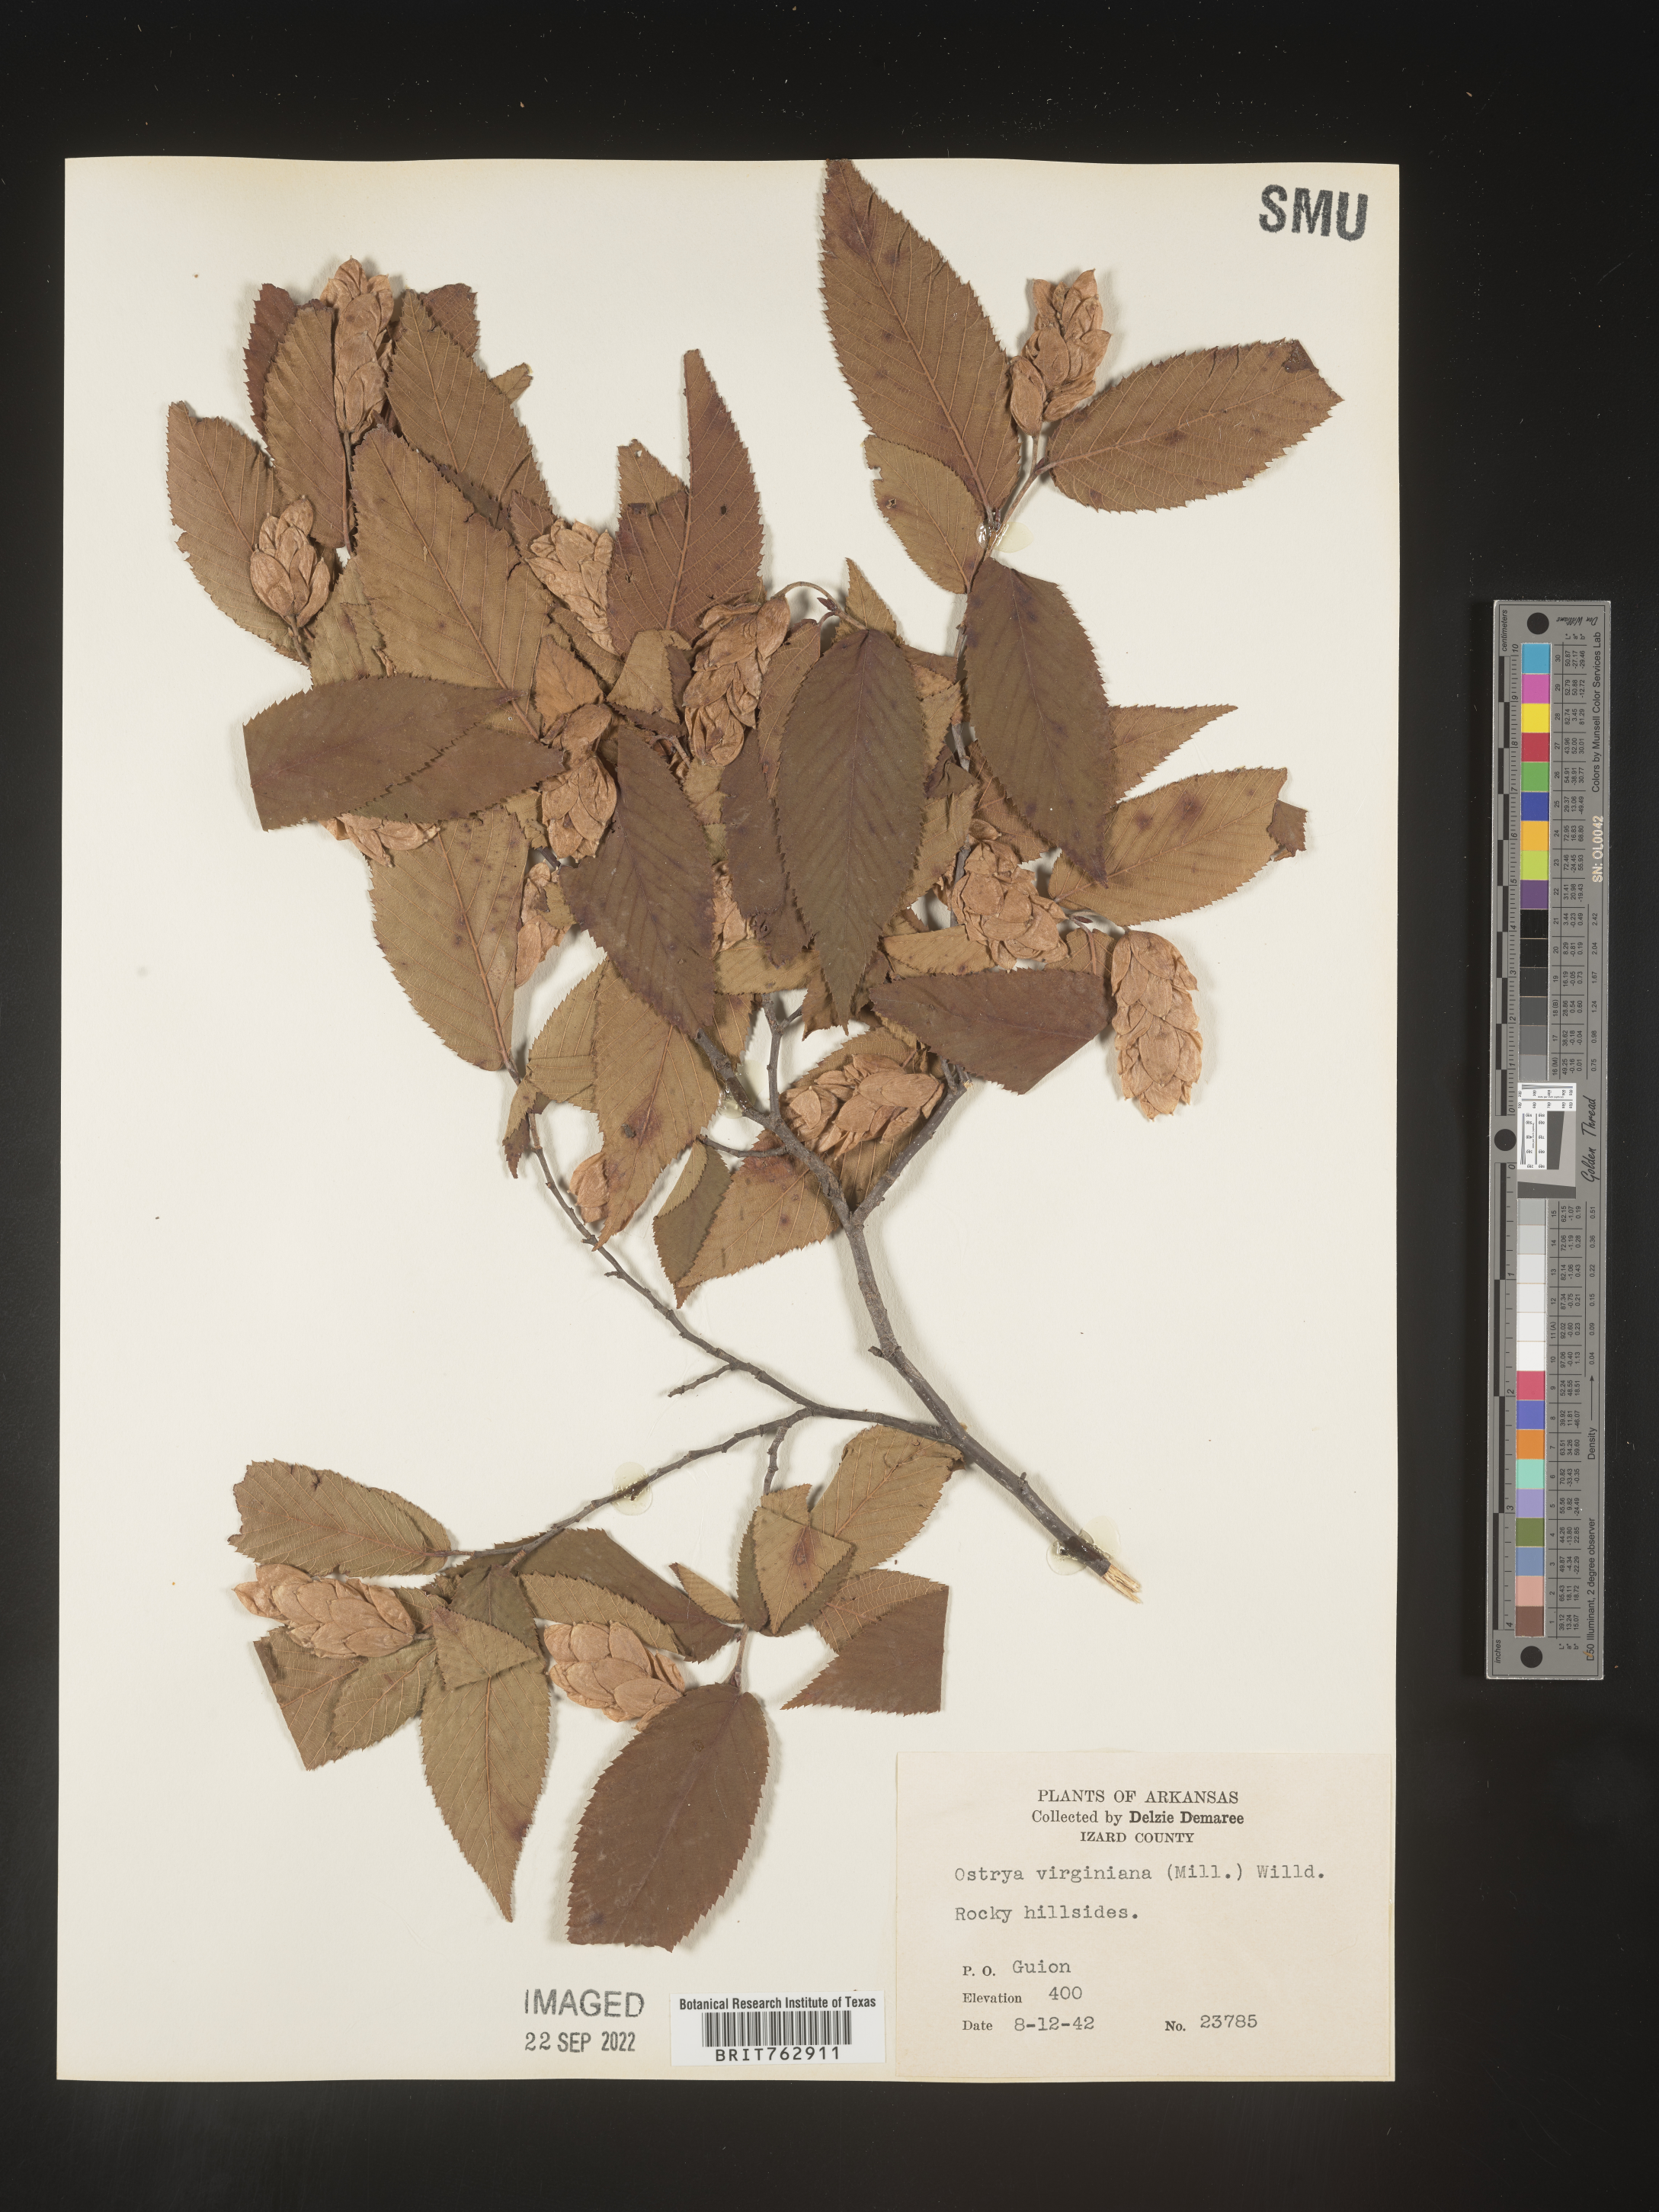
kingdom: Plantae
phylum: Tracheophyta
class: Magnoliopsida
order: Fagales
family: Betulaceae
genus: Ostrya
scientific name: Ostrya virginiana
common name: Ironwood
